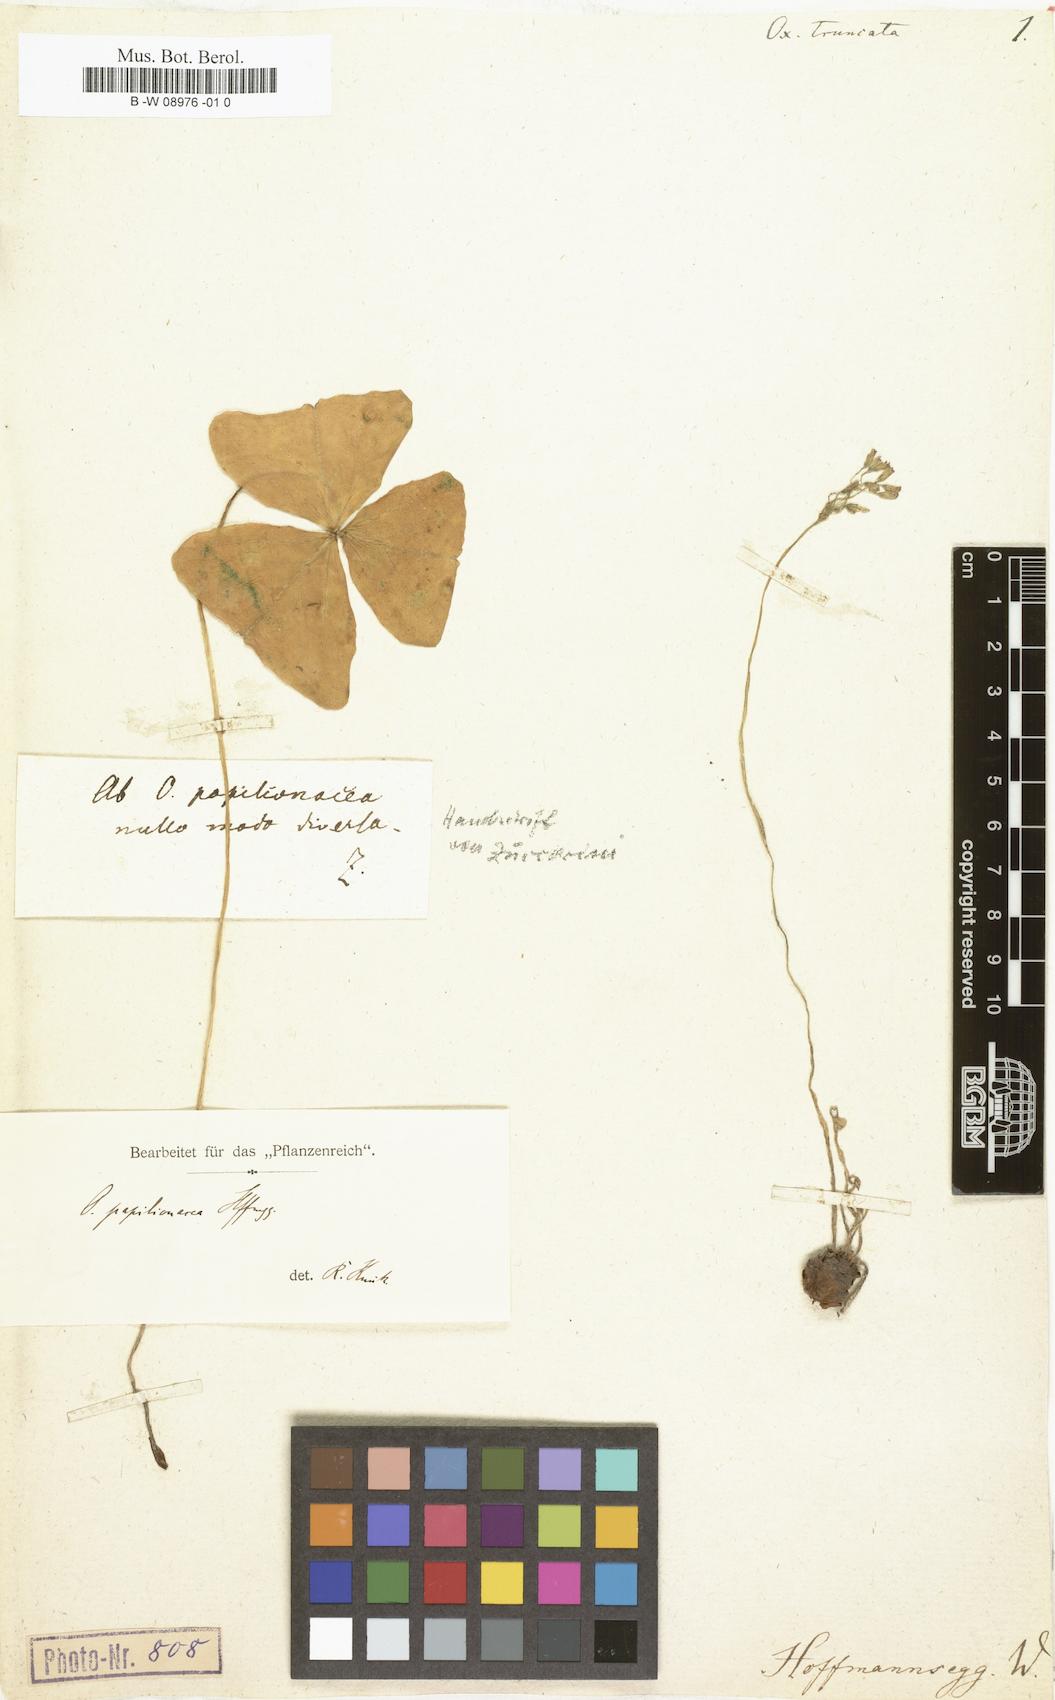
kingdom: Plantae
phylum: Tracheophyta
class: Magnoliopsida
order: Oxalidales
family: Oxalidaceae
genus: Oxalis
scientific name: Oxalis triangularis
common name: Wood sorrel
